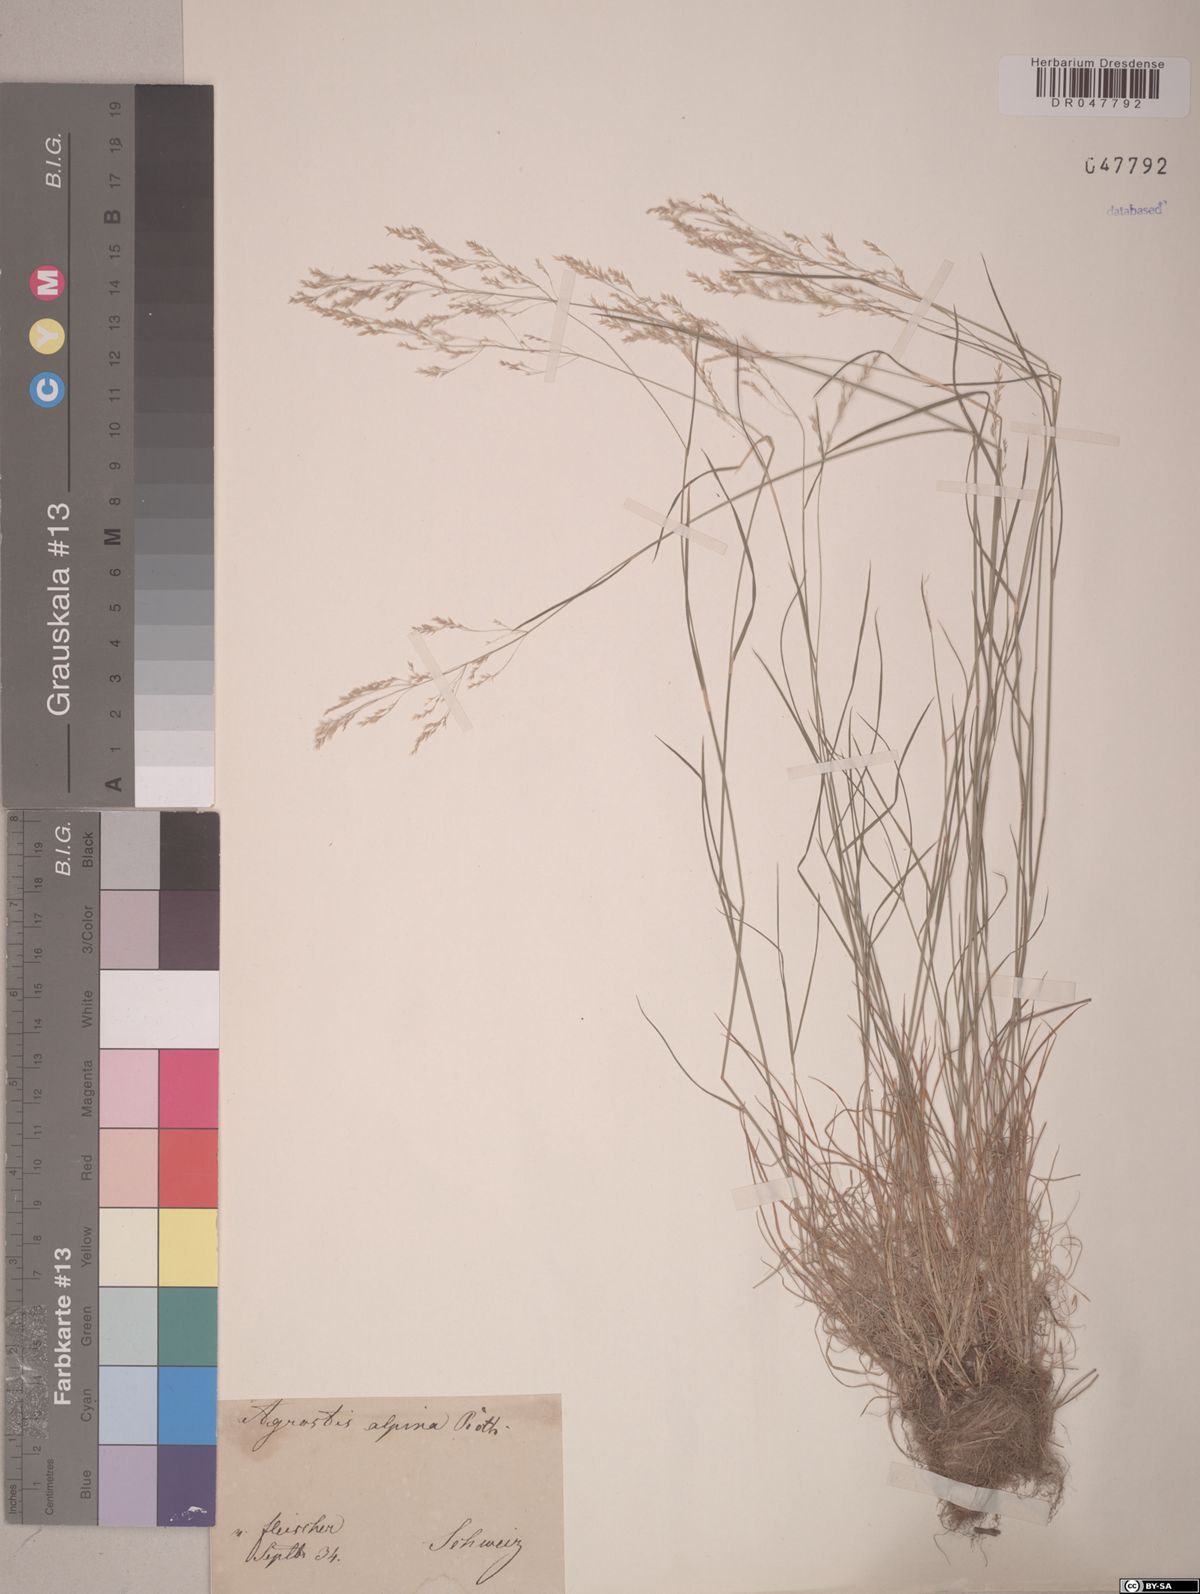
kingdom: Plantae
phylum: Tracheophyta
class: Liliopsida
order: Poales
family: Poaceae
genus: Alpagrostis
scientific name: Alpagrostis alpina
